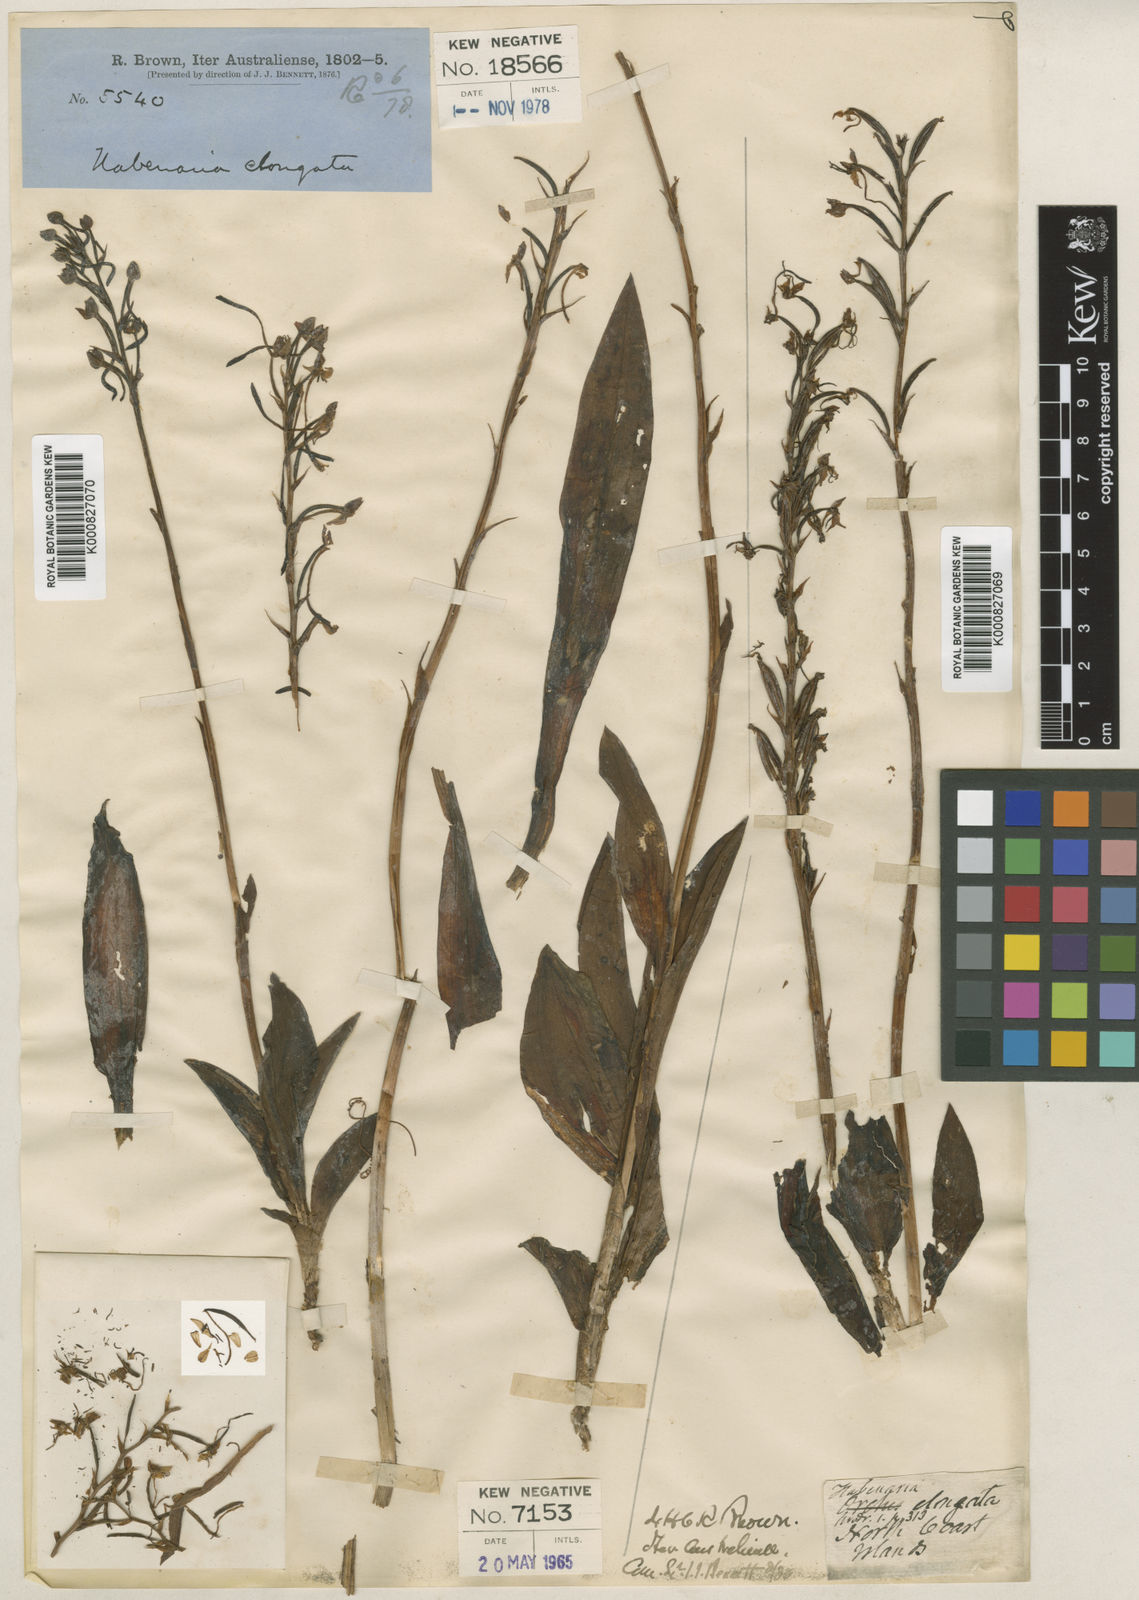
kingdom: Plantae
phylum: Tracheophyta
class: Liliopsida
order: Asparagales
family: Orchidaceae
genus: Habenaria
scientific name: Habenaria elongata
